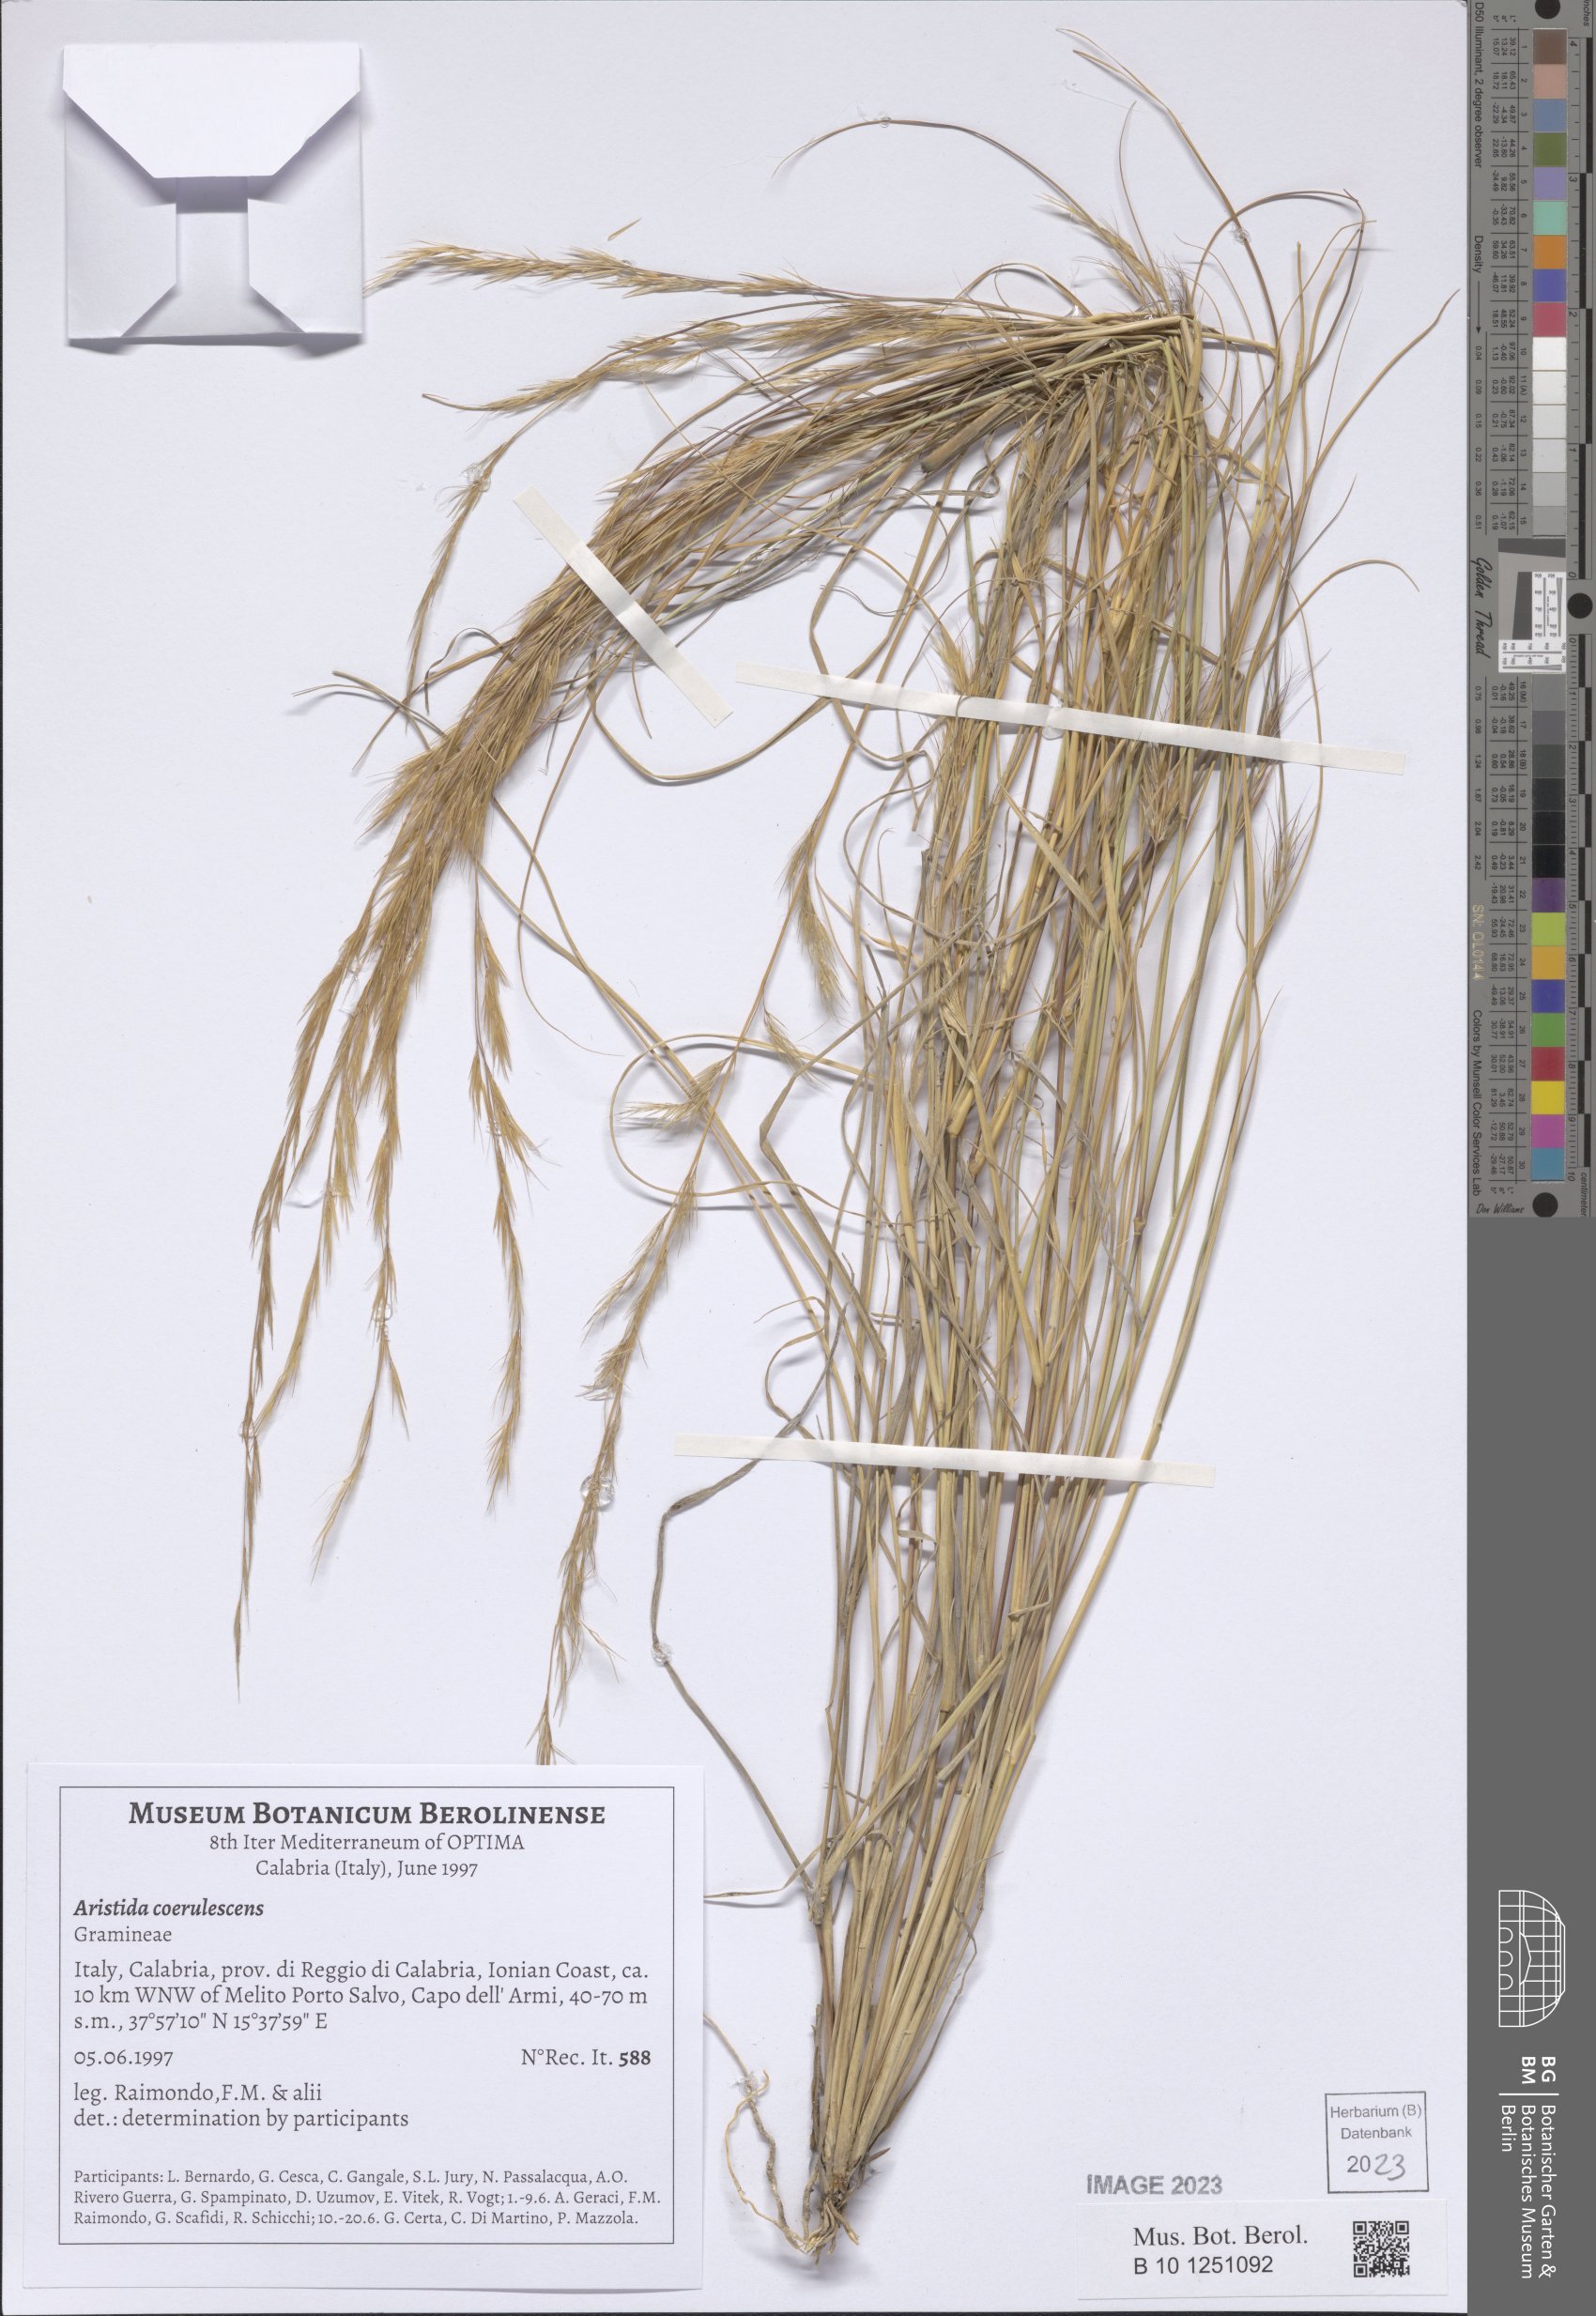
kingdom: Plantae
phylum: Tracheophyta
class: Liliopsida
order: Poales
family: Poaceae
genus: Aristida
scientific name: Aristida adscensionis
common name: Sixweeks threeawn
